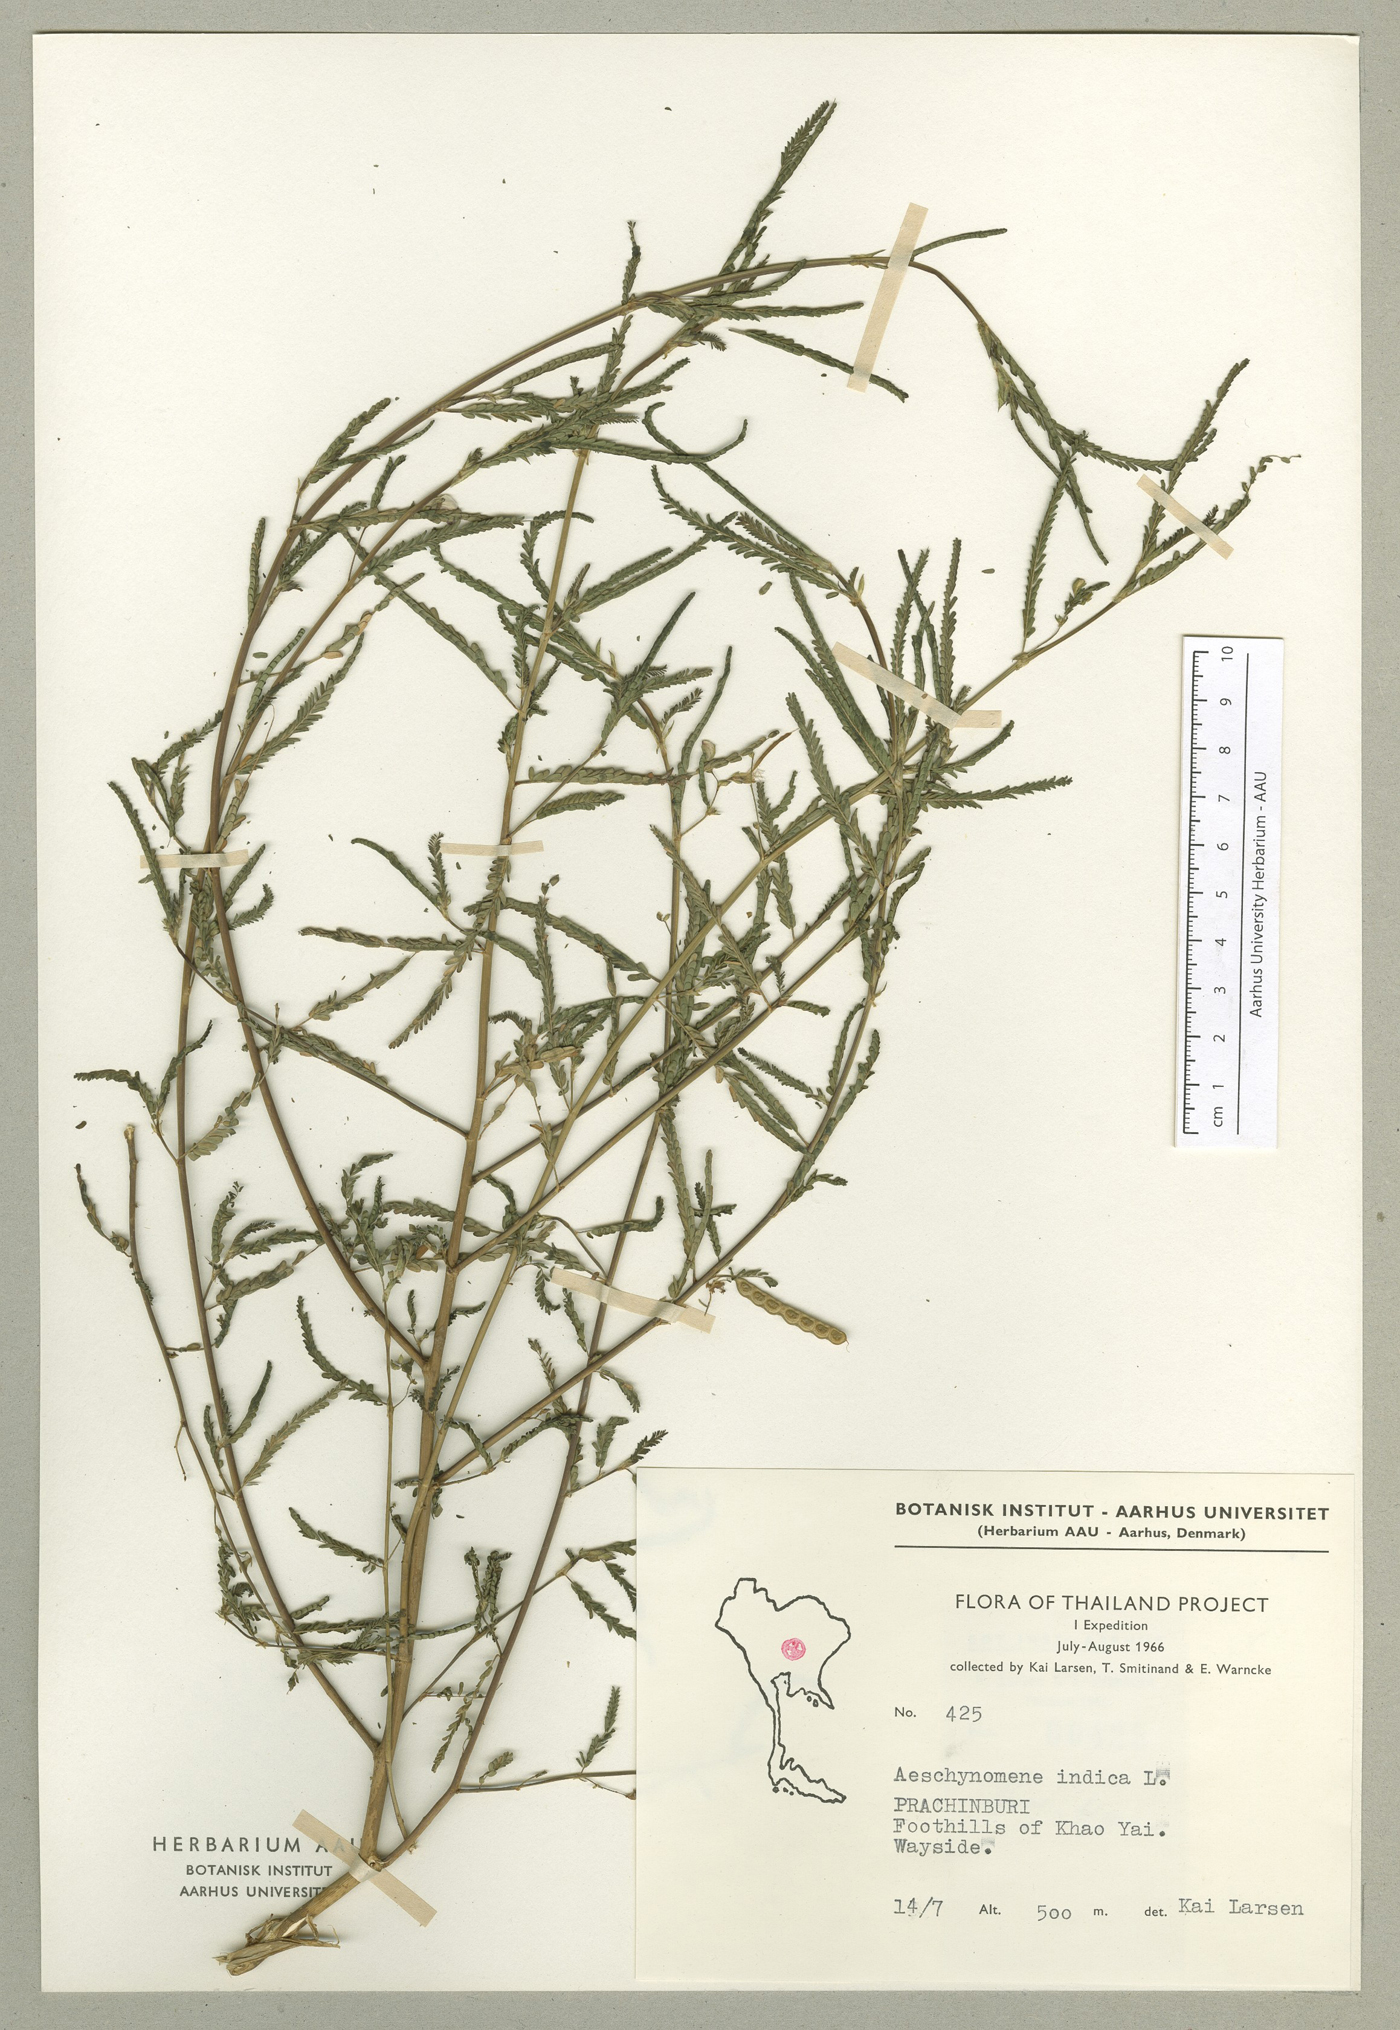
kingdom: Plantae
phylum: Tracheophyta
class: Magnoliopsida
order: Fabales
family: Fabaceae
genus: Aeschynomene
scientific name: Aeschynomene indica
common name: Indian jointvetch
